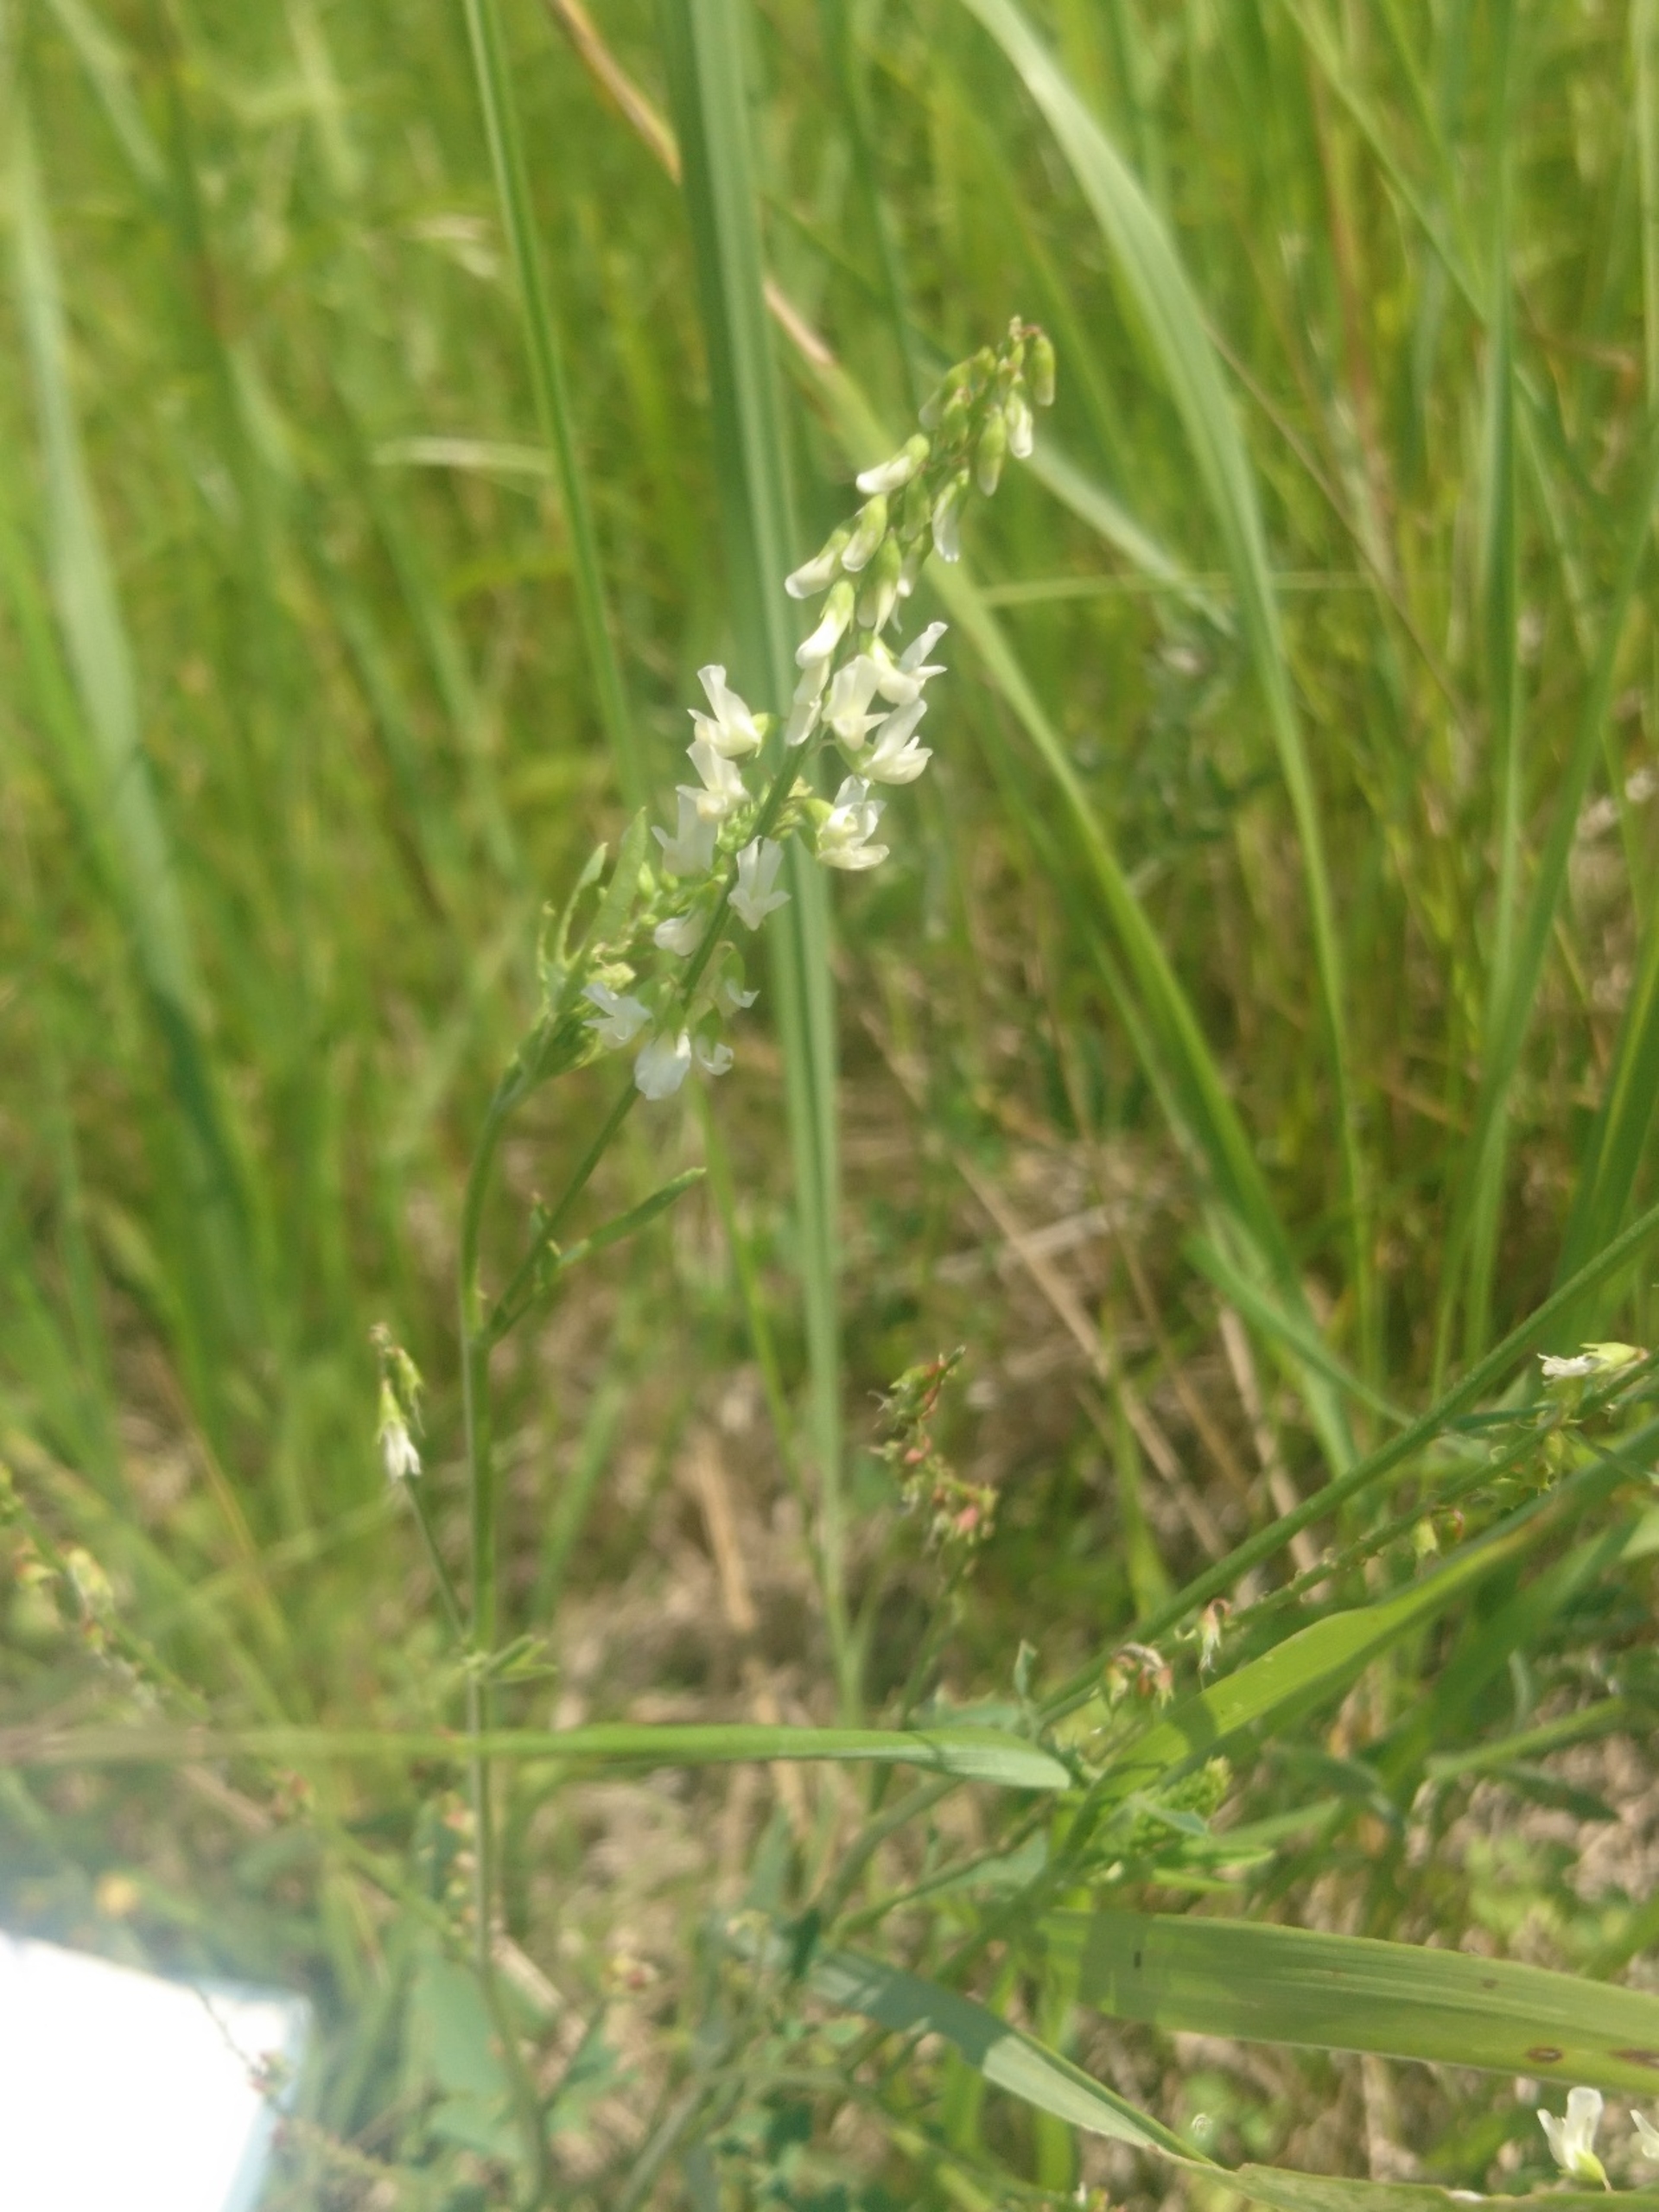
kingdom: Plantae
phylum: Tracheophyta
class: Magnoliopsida
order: Fabales
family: Fabaceae
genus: Melilotus
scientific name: Melilotus albus
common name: Hvid stenkløver
